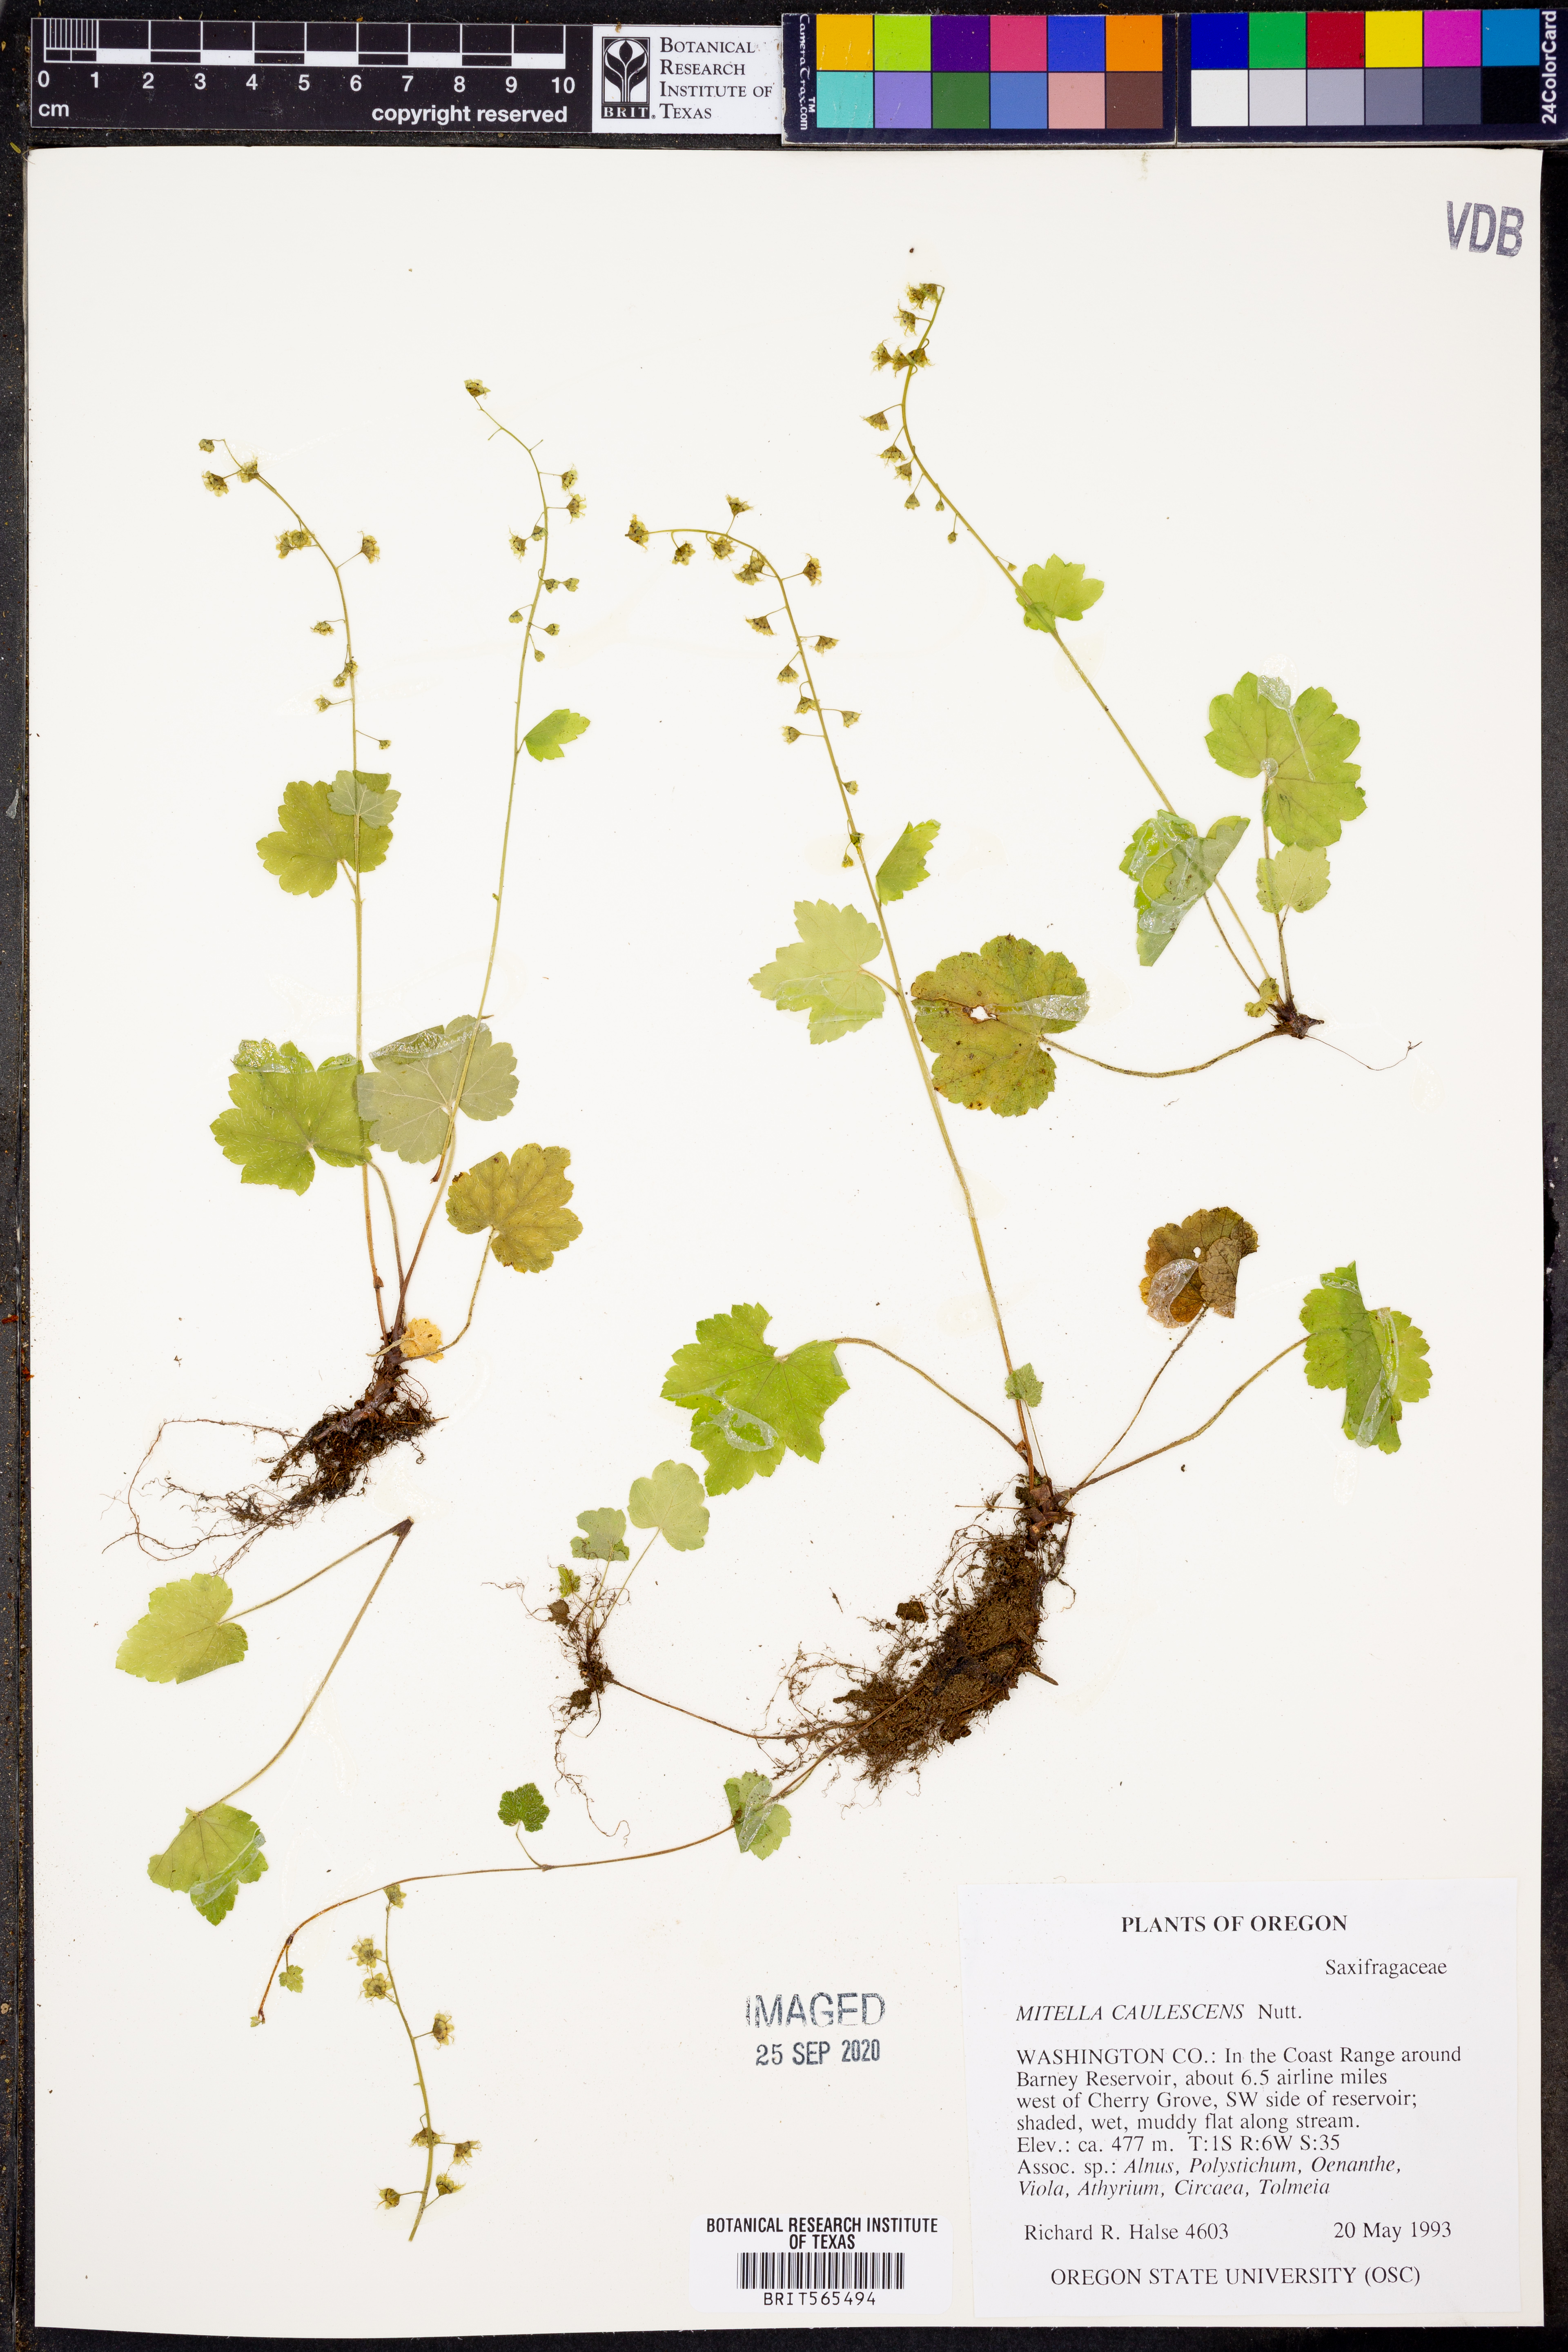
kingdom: Plantae
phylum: Tracheophyta
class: Magnoliopsida
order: Saxifragales
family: Saxifragaceae
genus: Mitellastra
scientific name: Mitellastra caulescens
